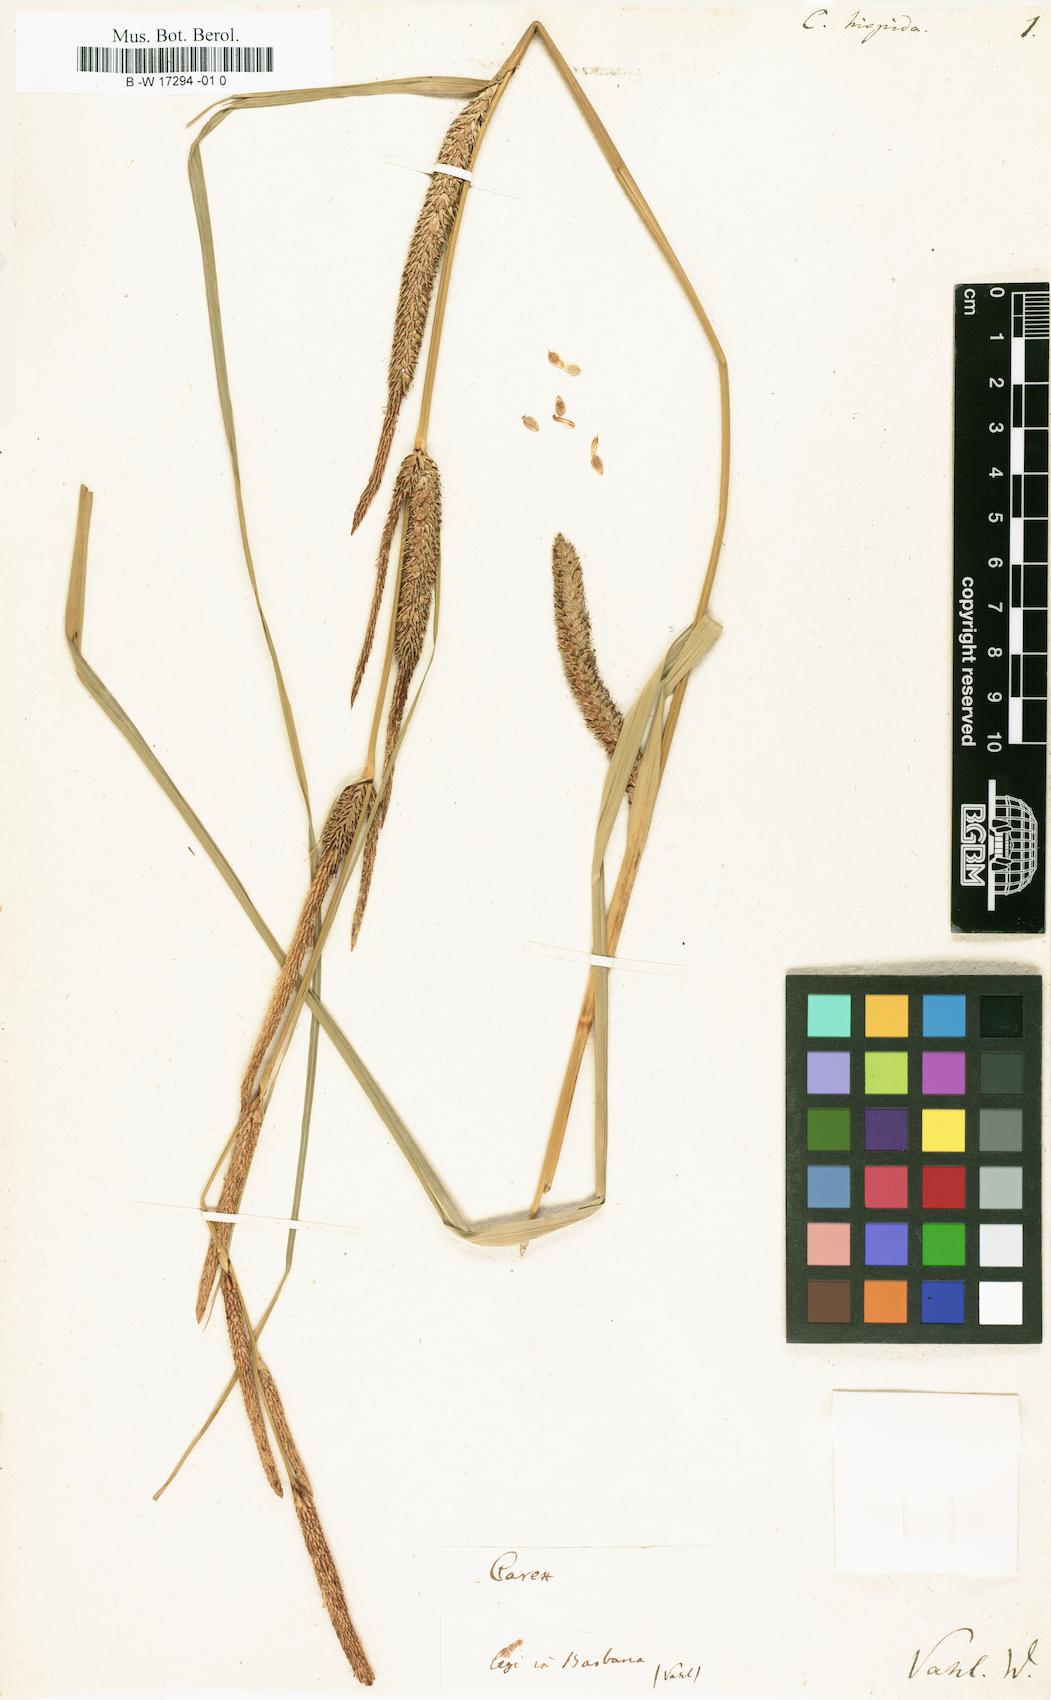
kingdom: Plantae
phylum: Tracheophyta
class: Liliopsida
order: Poales
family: Cyperaceae
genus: Carex
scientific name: Carex hispida
